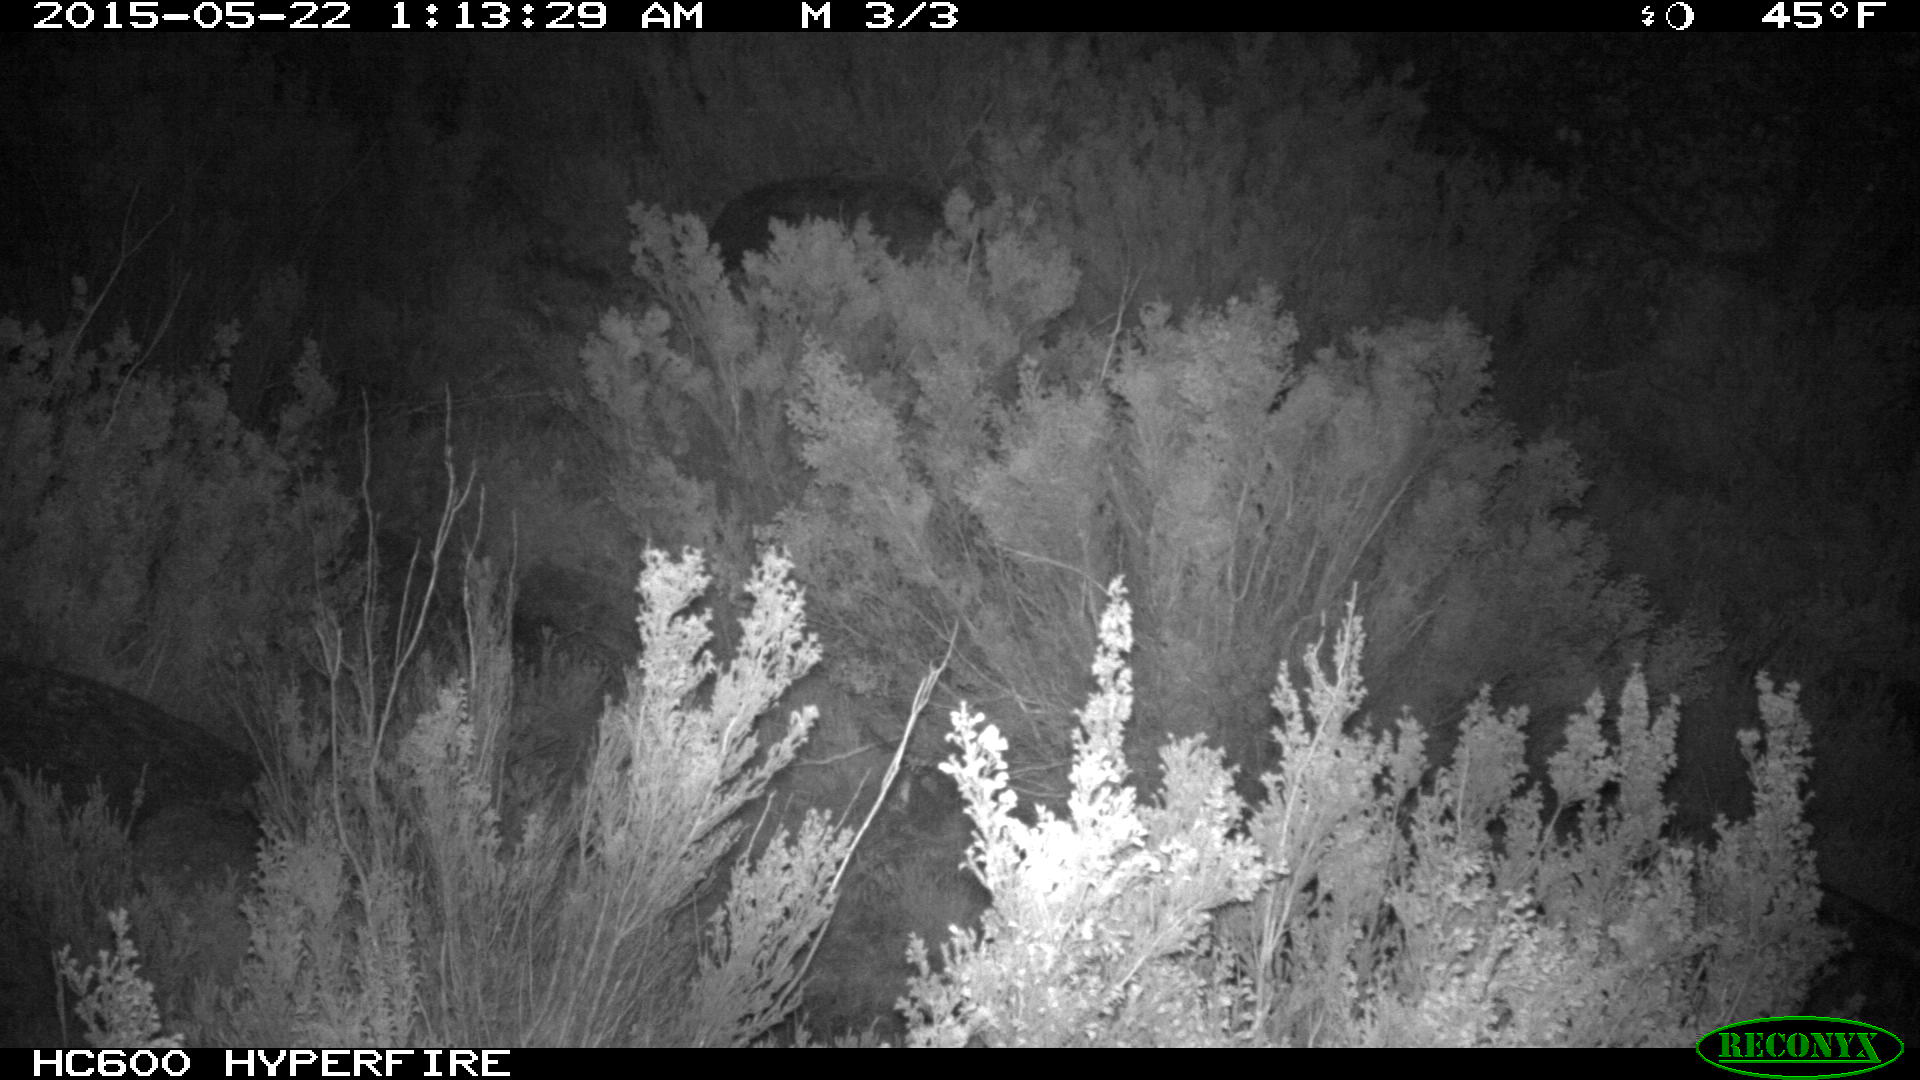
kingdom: Animalia
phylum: Chordata
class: Mammalia
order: Perissodactyla
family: Equidae
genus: Equus
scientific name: Equus caballus
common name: Horse
